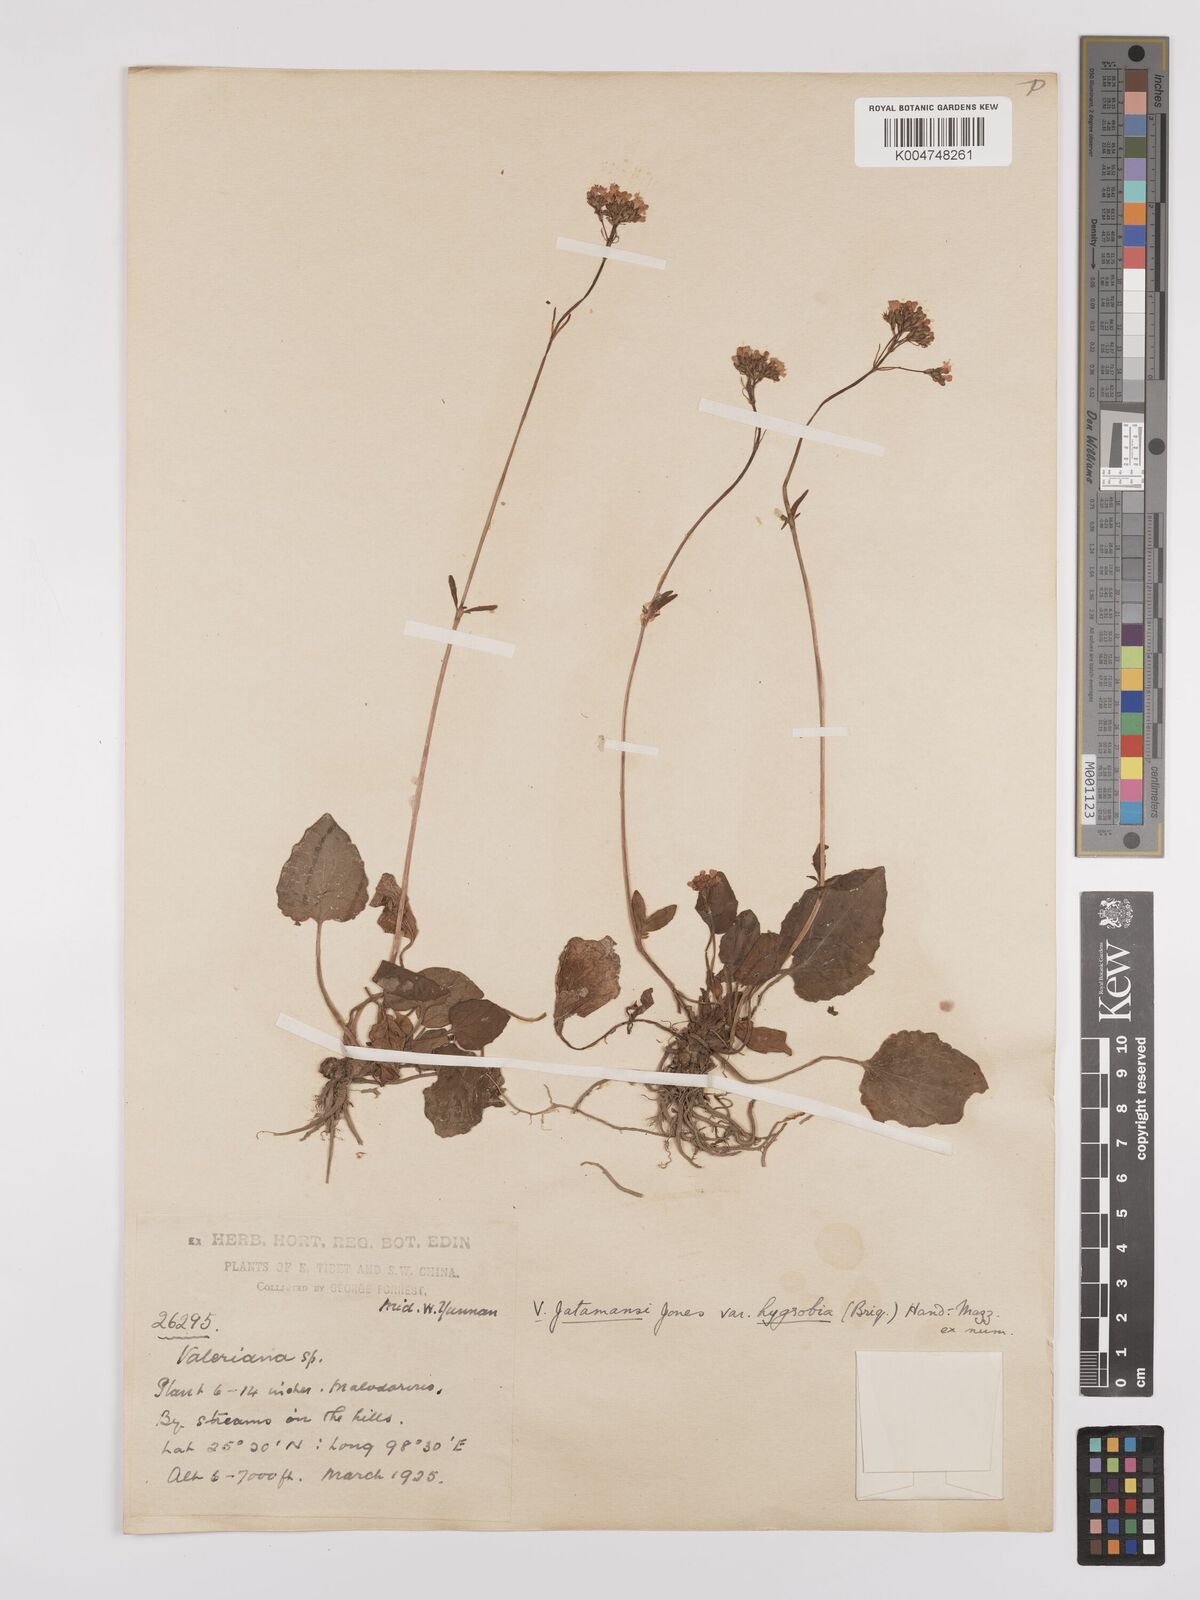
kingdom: Plantae
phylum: Tracheophyta
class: Magnoliopsida
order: Dipsacales
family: Caprifoliaceae
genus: Valeriana
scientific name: Valeriana
